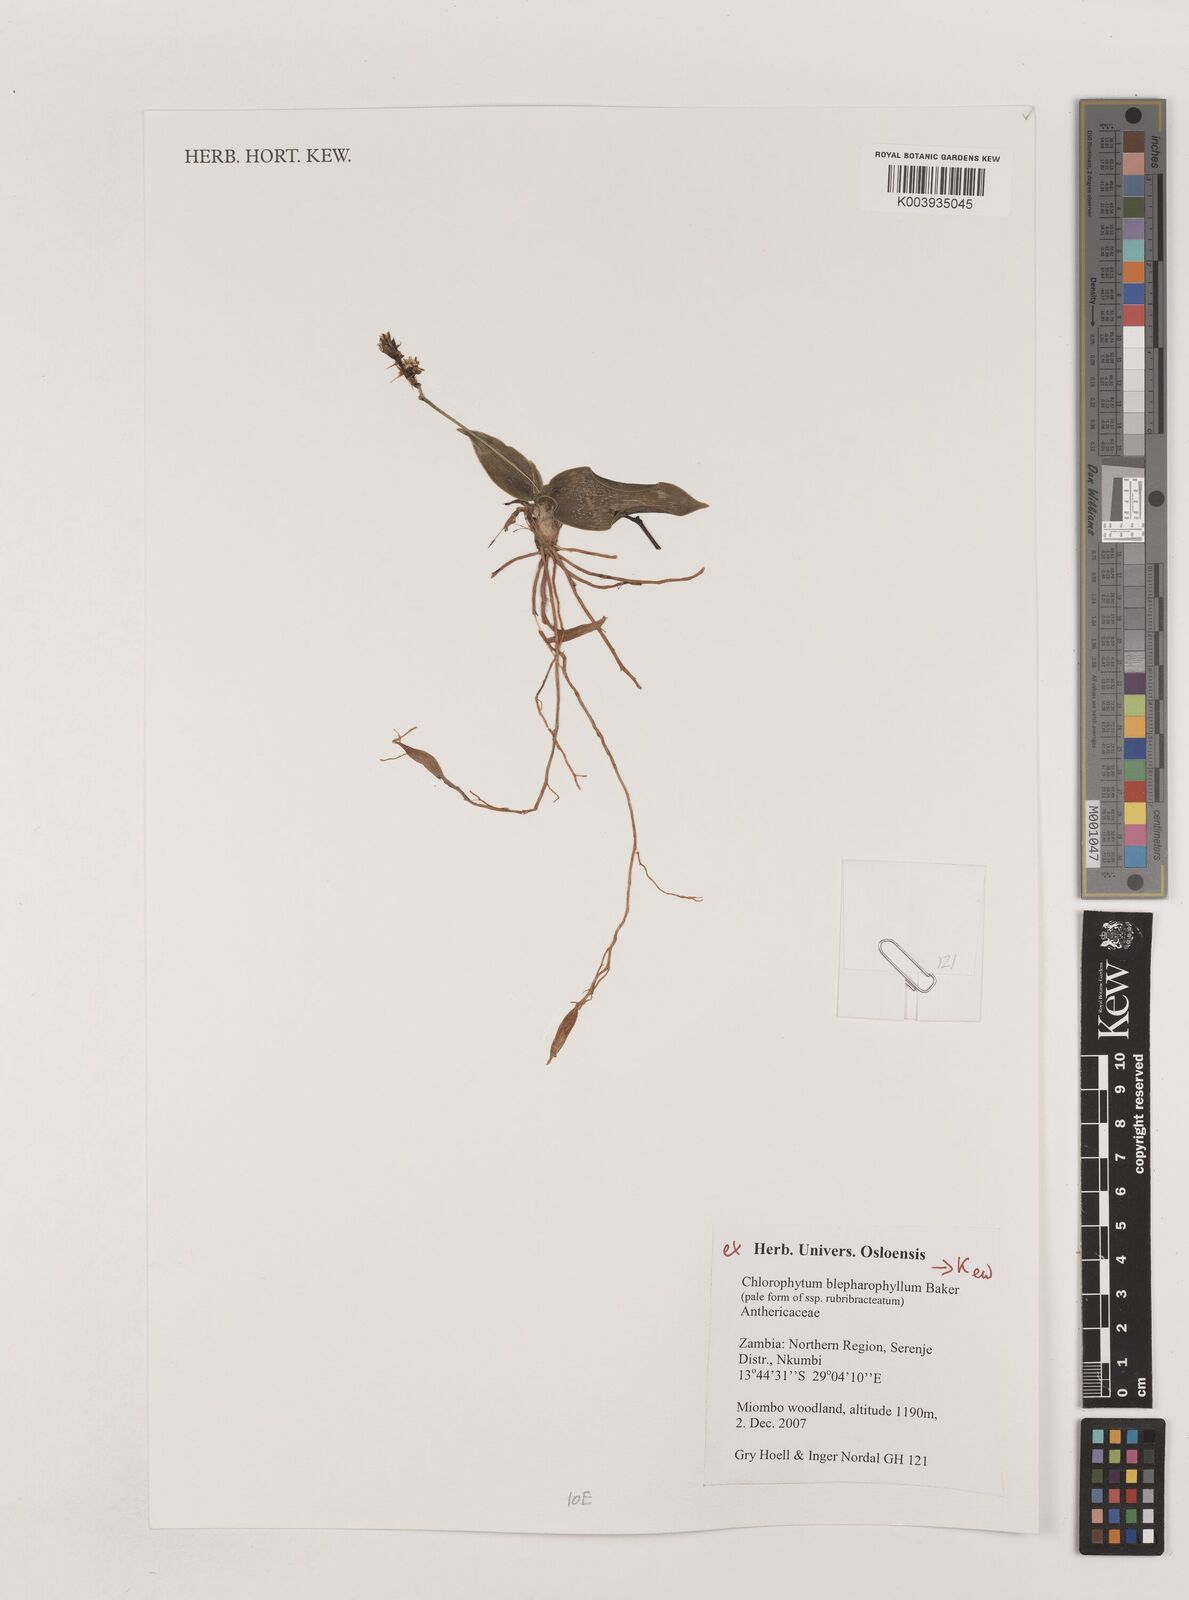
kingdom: Plantae
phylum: Tracheophyta
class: Liliopsida
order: Asparagales
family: Asparagaceae
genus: Chlorophytum
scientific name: Chlorophytum blepharophyllum
